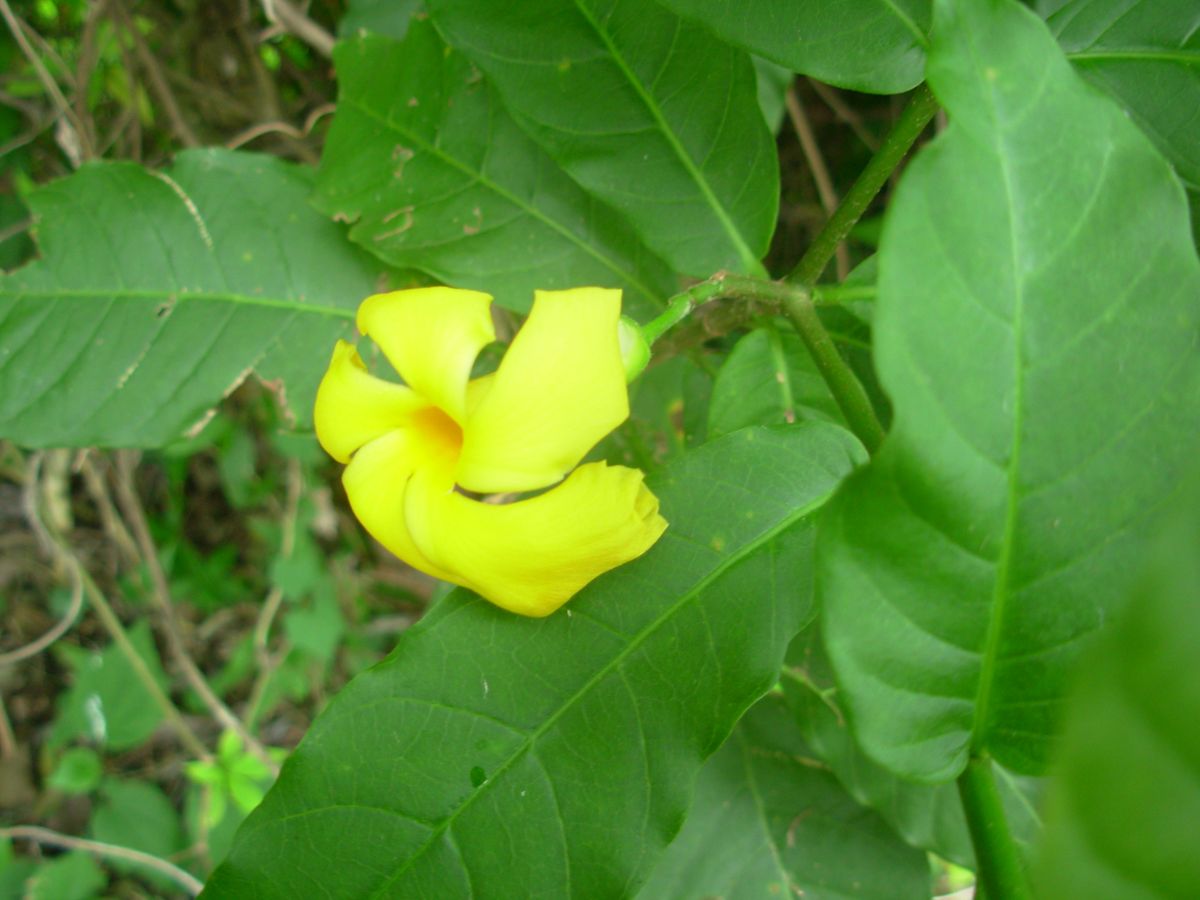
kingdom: Plantae
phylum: Tracheophyta
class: Magnoliopsida
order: Gentianales
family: Apocynaceae
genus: Tabernaemontana
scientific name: Tabernaemontana glabra
